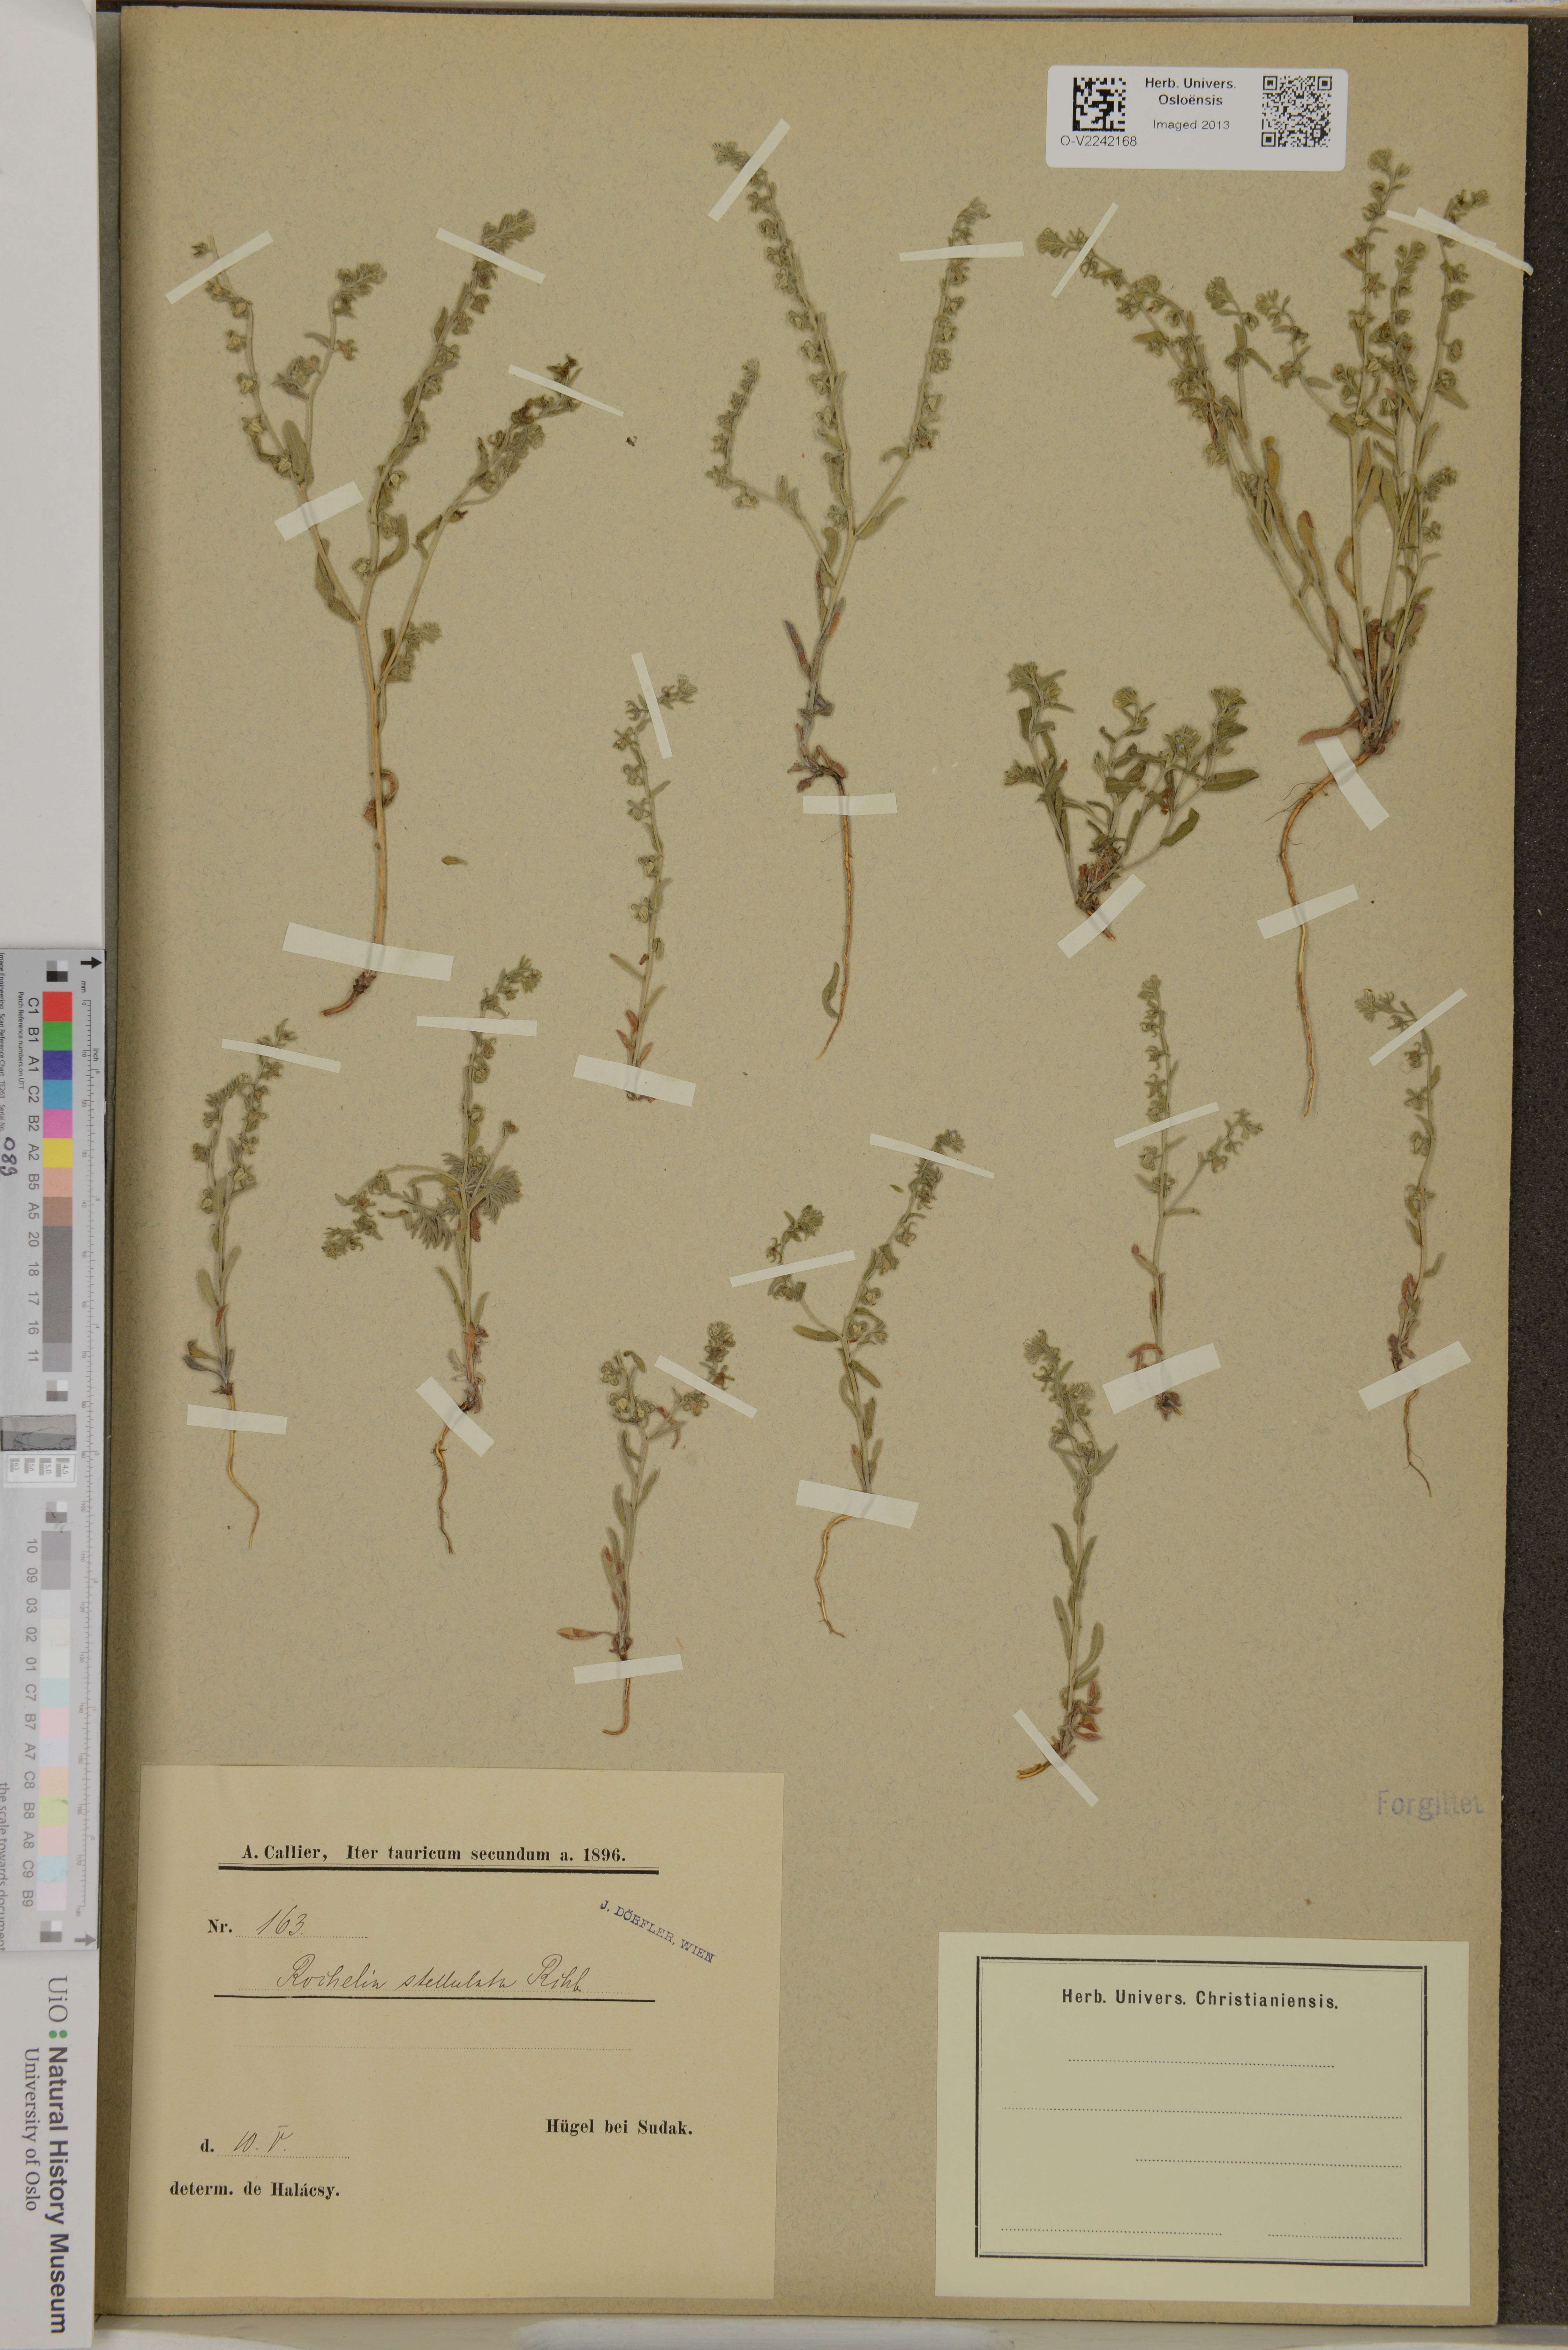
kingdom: Plantae
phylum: Tracheophyta
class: Magnoliopsida
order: Boraginales
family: Boraginaceae
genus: Rochelia
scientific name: Rochelia
